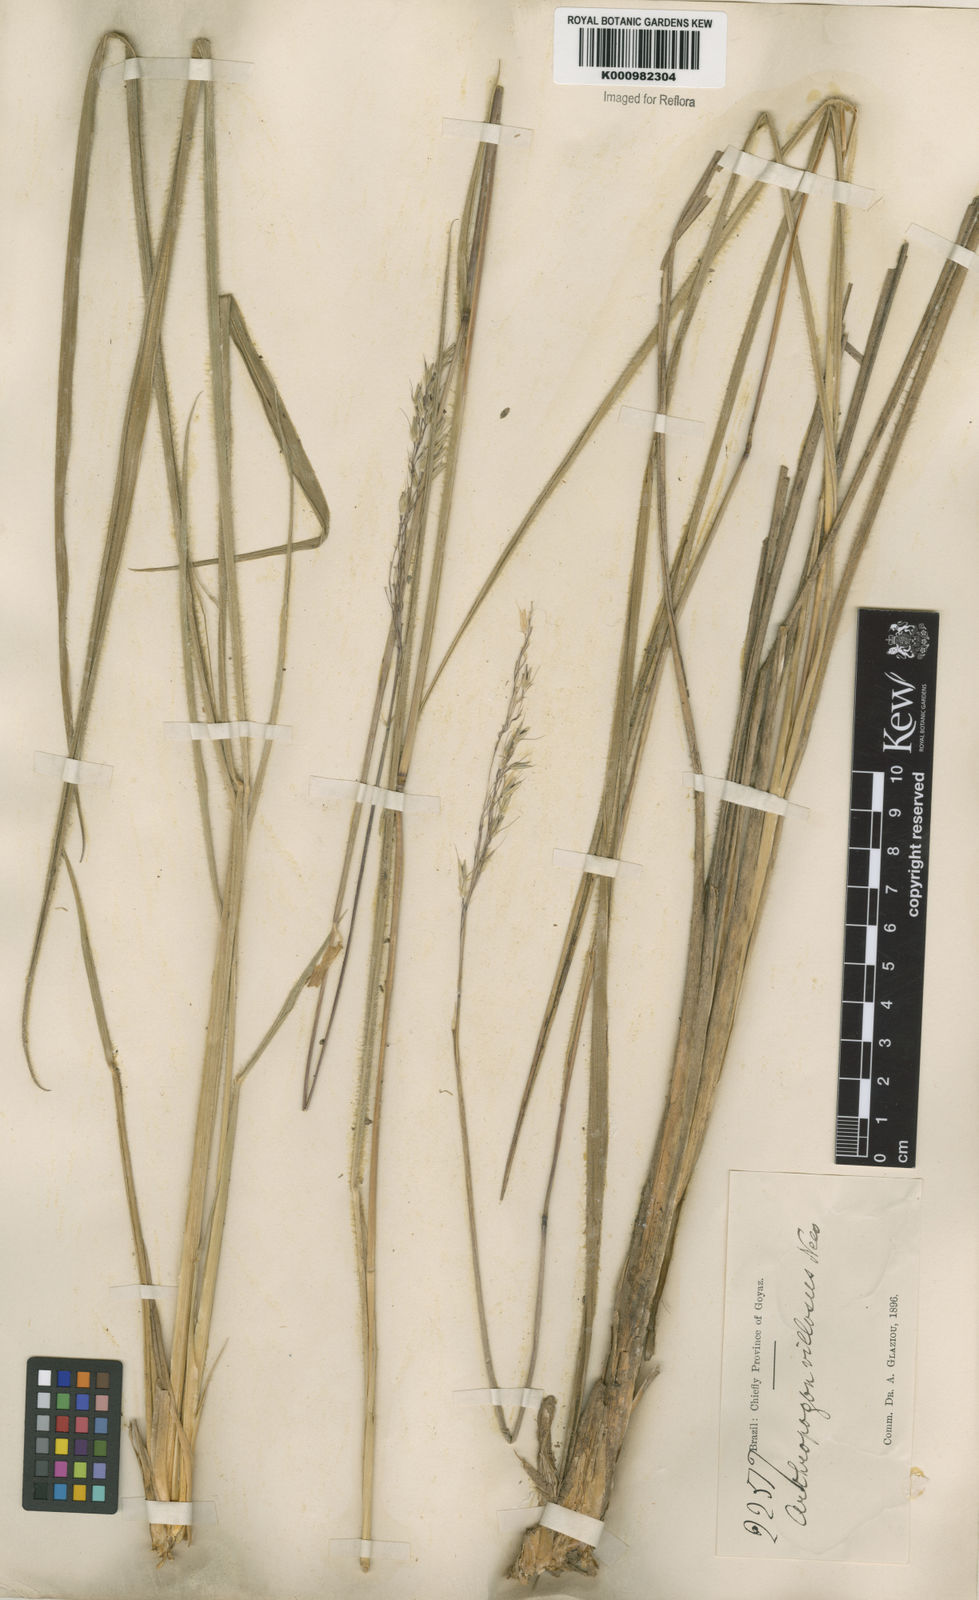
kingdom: Plantae
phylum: Tracheophyta
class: Liliopsida
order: Poales
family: Poaceae
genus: Arthropogon
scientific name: Arthropogon villosus
